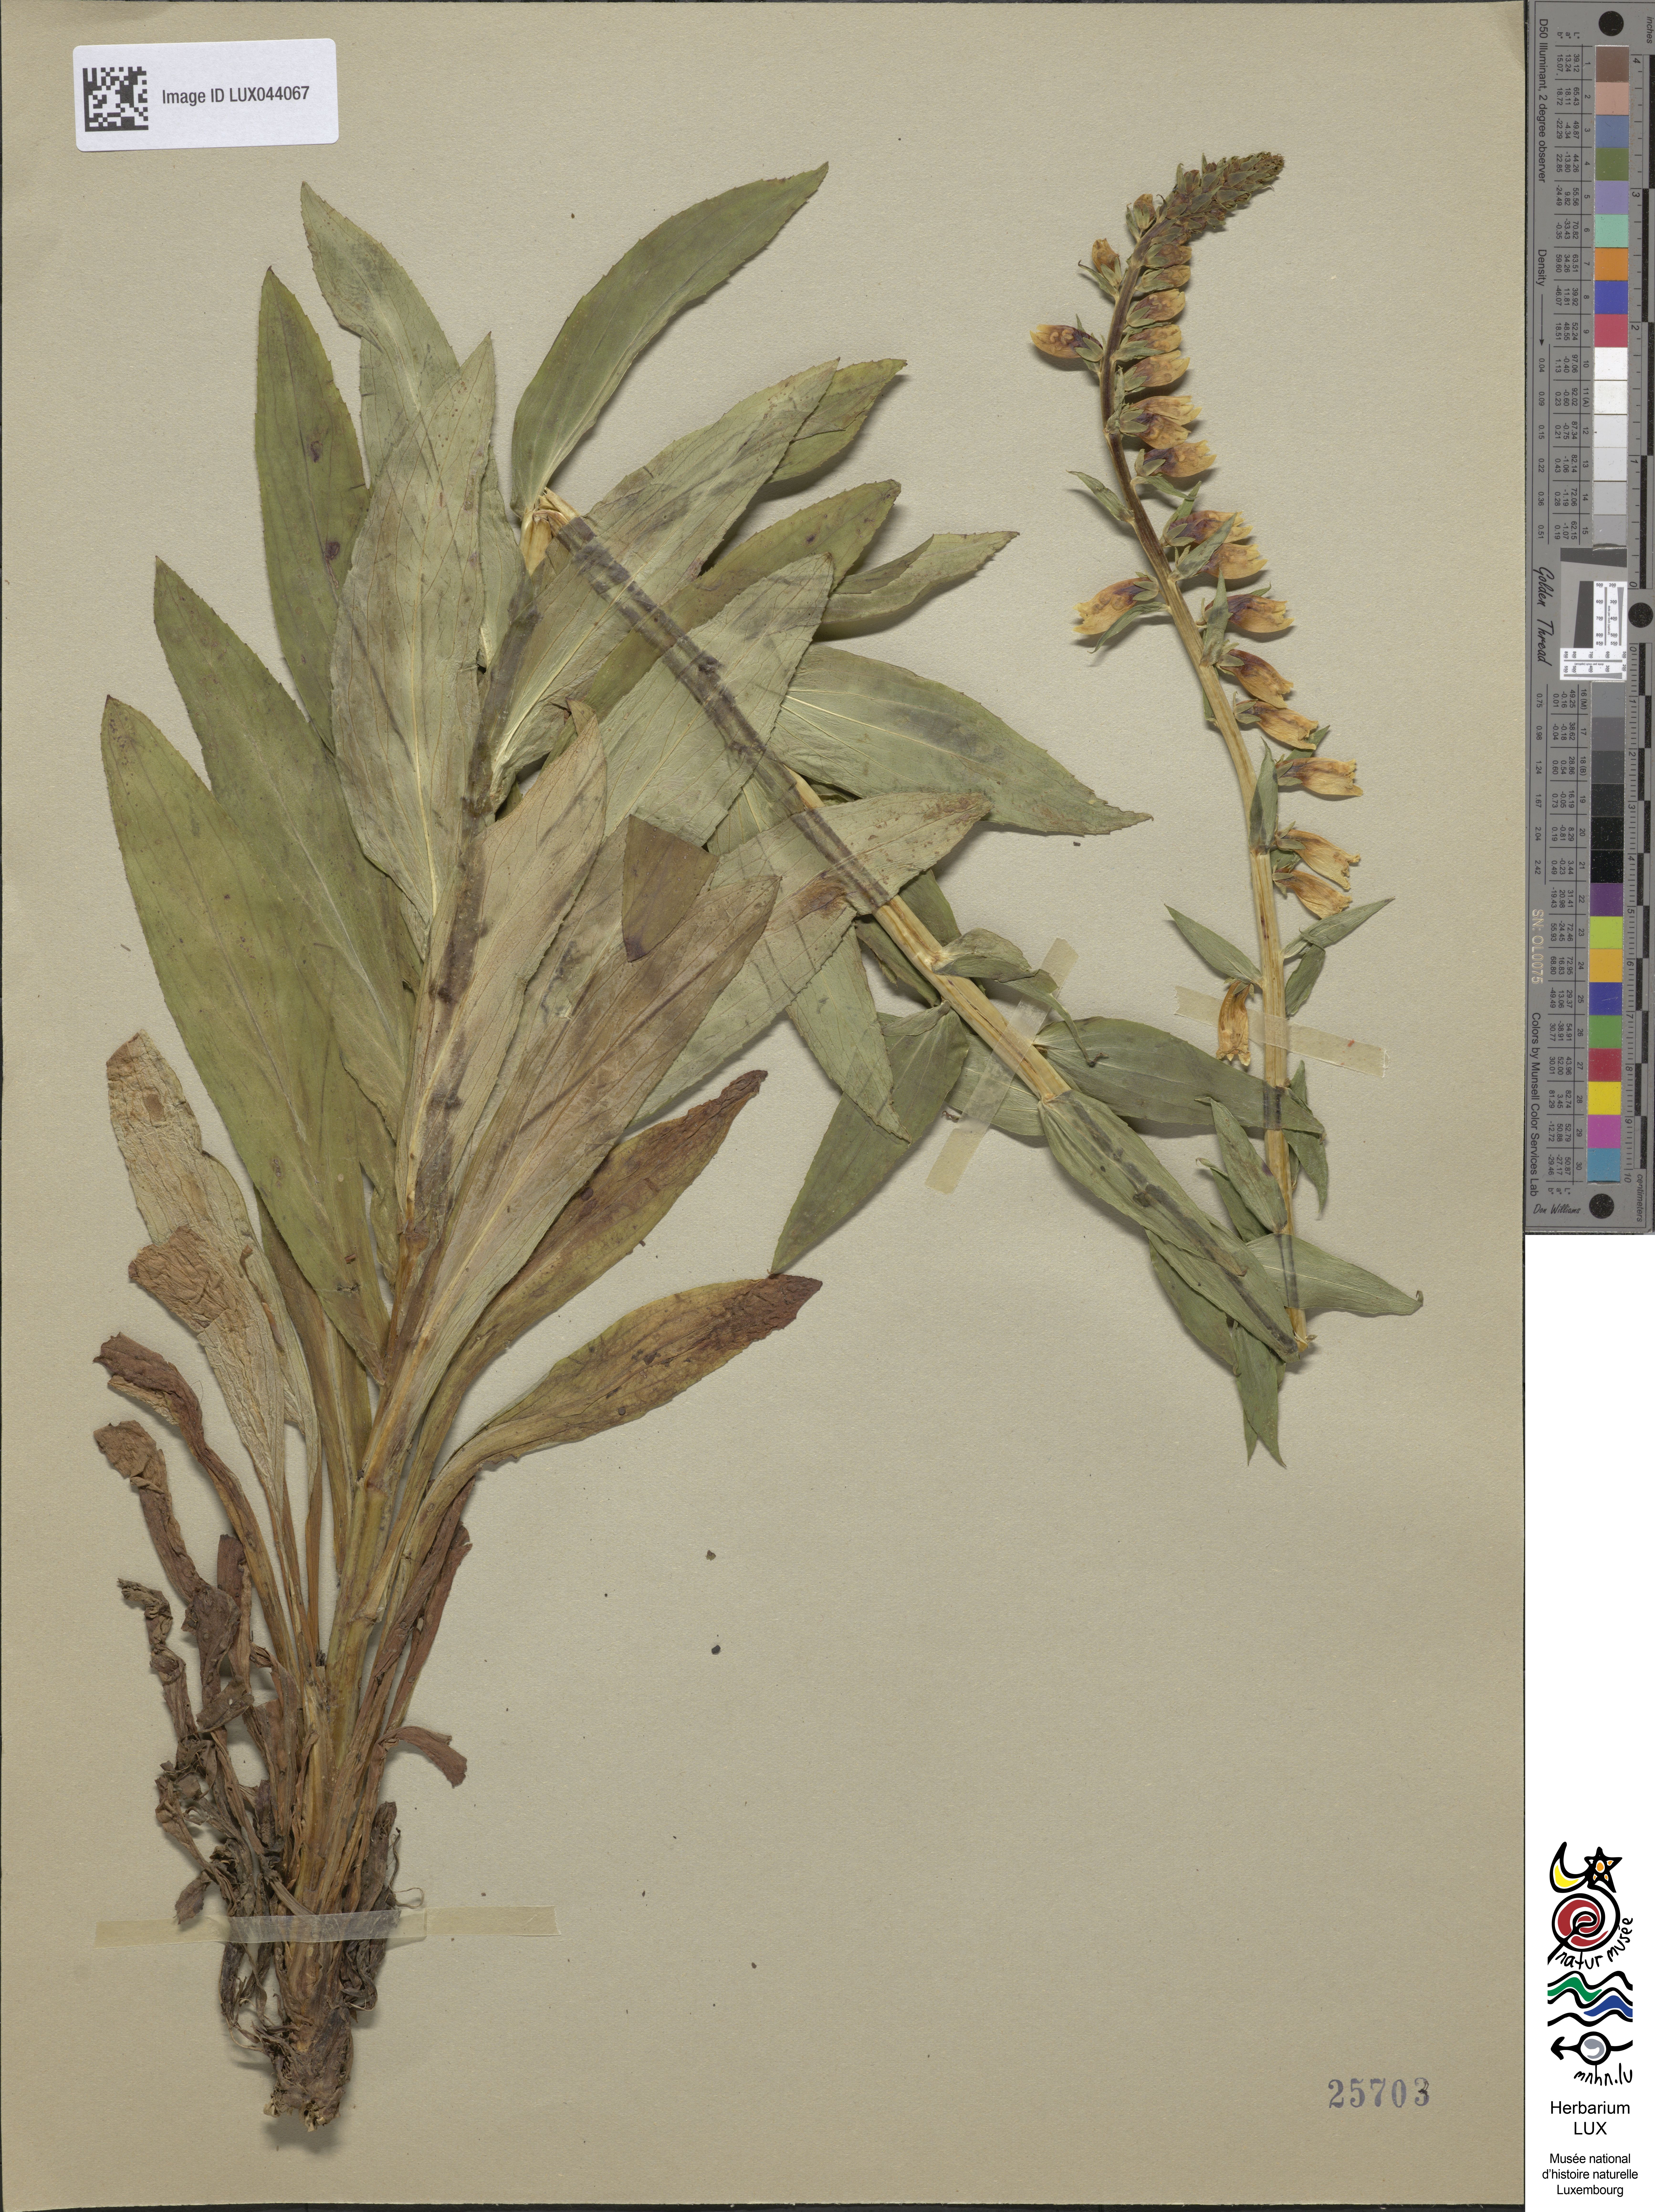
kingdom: Plantae
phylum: Tracheophyta
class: Magnoliopsida
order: Lamiales
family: Plantaginaceae
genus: Digitalis
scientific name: Digitalis lutea
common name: Straw foxglove
